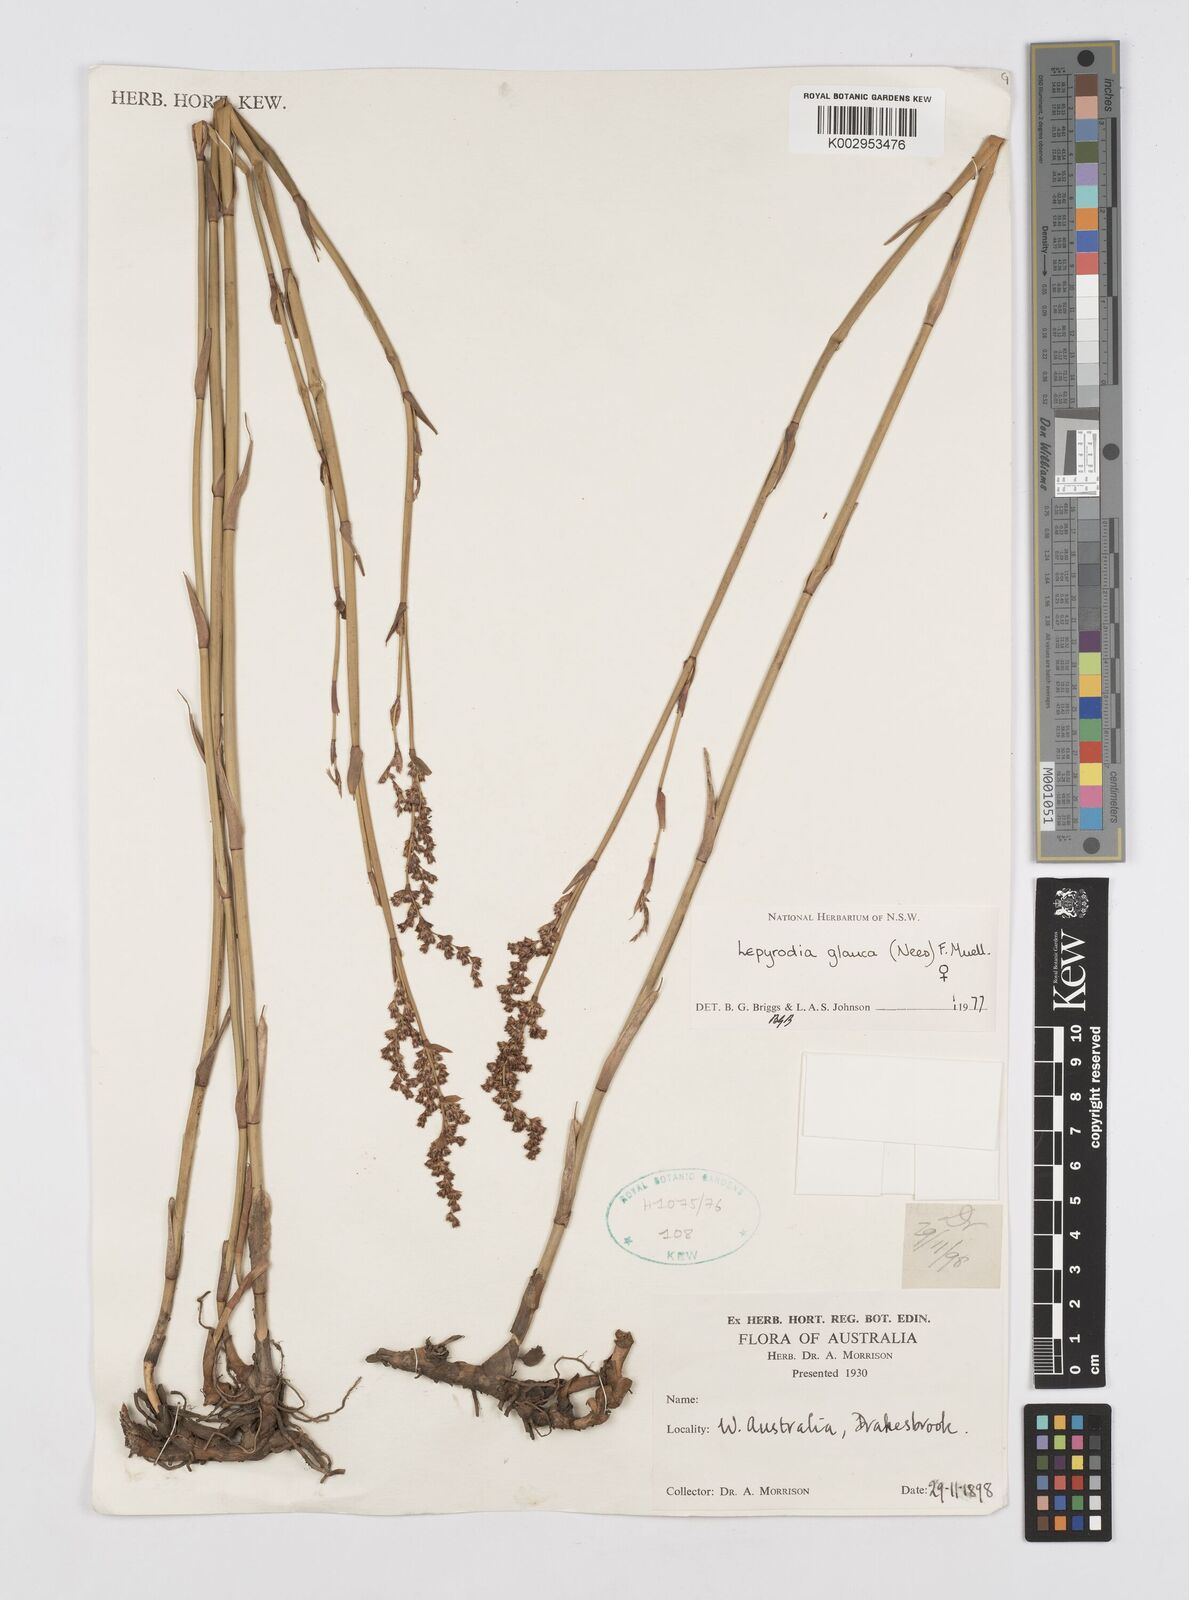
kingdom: Plantae
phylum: Tracheophyta
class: Liliopsida
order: Poales
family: Restionaceae
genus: Lepyrodia
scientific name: Lepyrodia glauca
